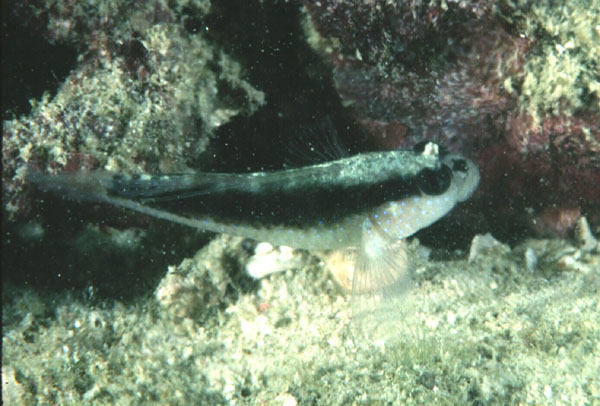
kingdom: Animalia
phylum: Chordata
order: Perciformes
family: Gobiidae
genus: Asterropteryx
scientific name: Asterropteryx semipunctata
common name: Starry goby
